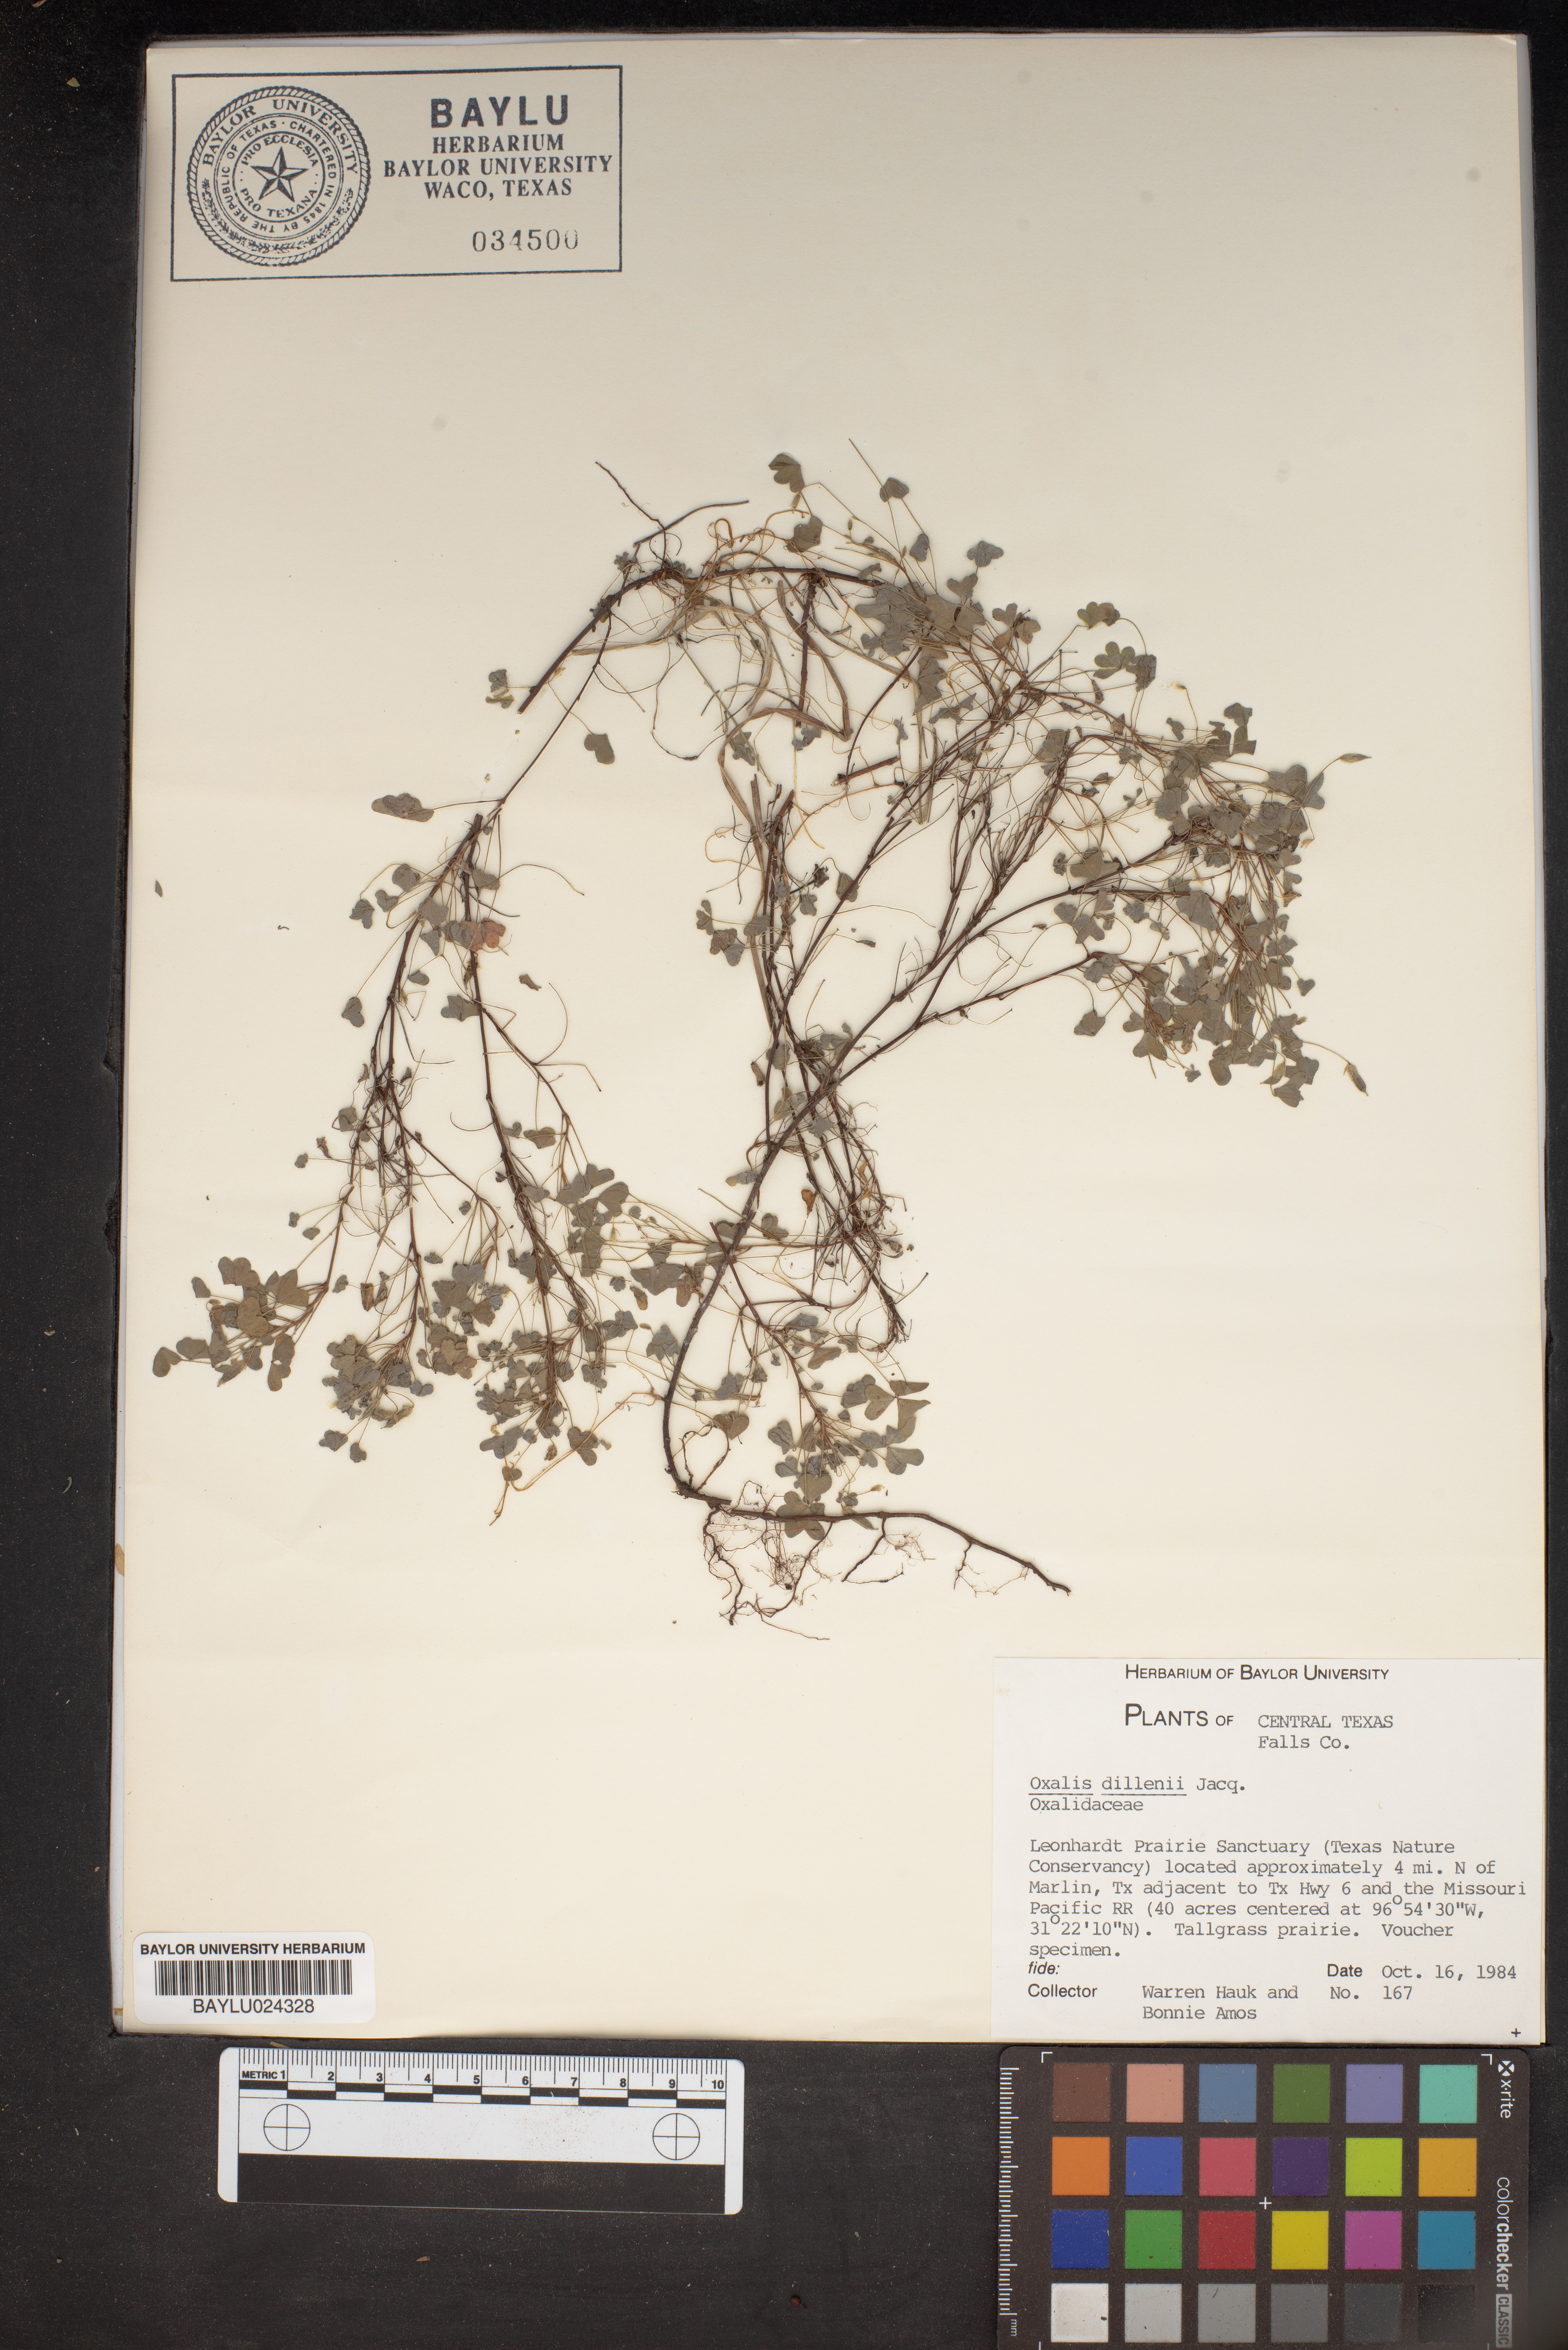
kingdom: Plantae
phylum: Tracheophyta
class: Magnoliopsida
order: Oxalidales
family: Oxalidaceae
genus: Oxalis
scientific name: Oxalis dillenii
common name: Sussex yellow-sorrel
